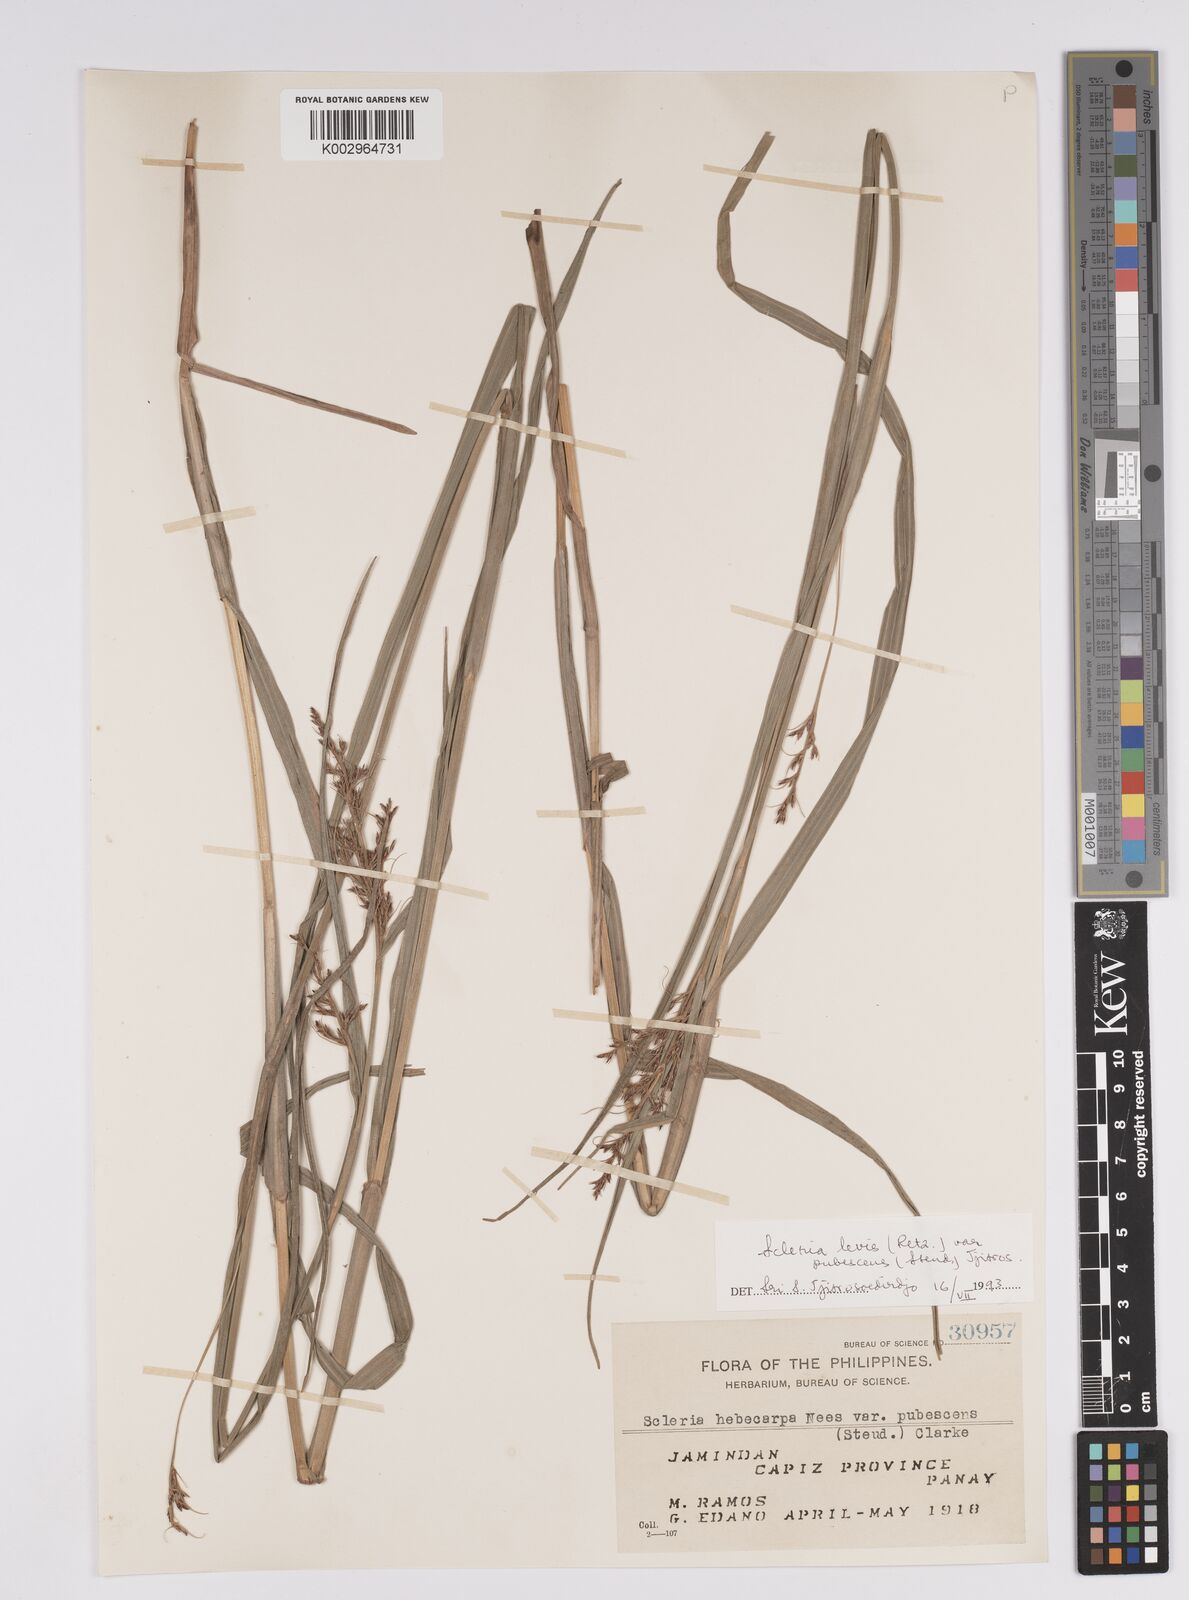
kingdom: Plantae
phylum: Tracheophyta
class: Liliopsida
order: Poales
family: Cyperaceae
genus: Scleria
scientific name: Scleria levis
